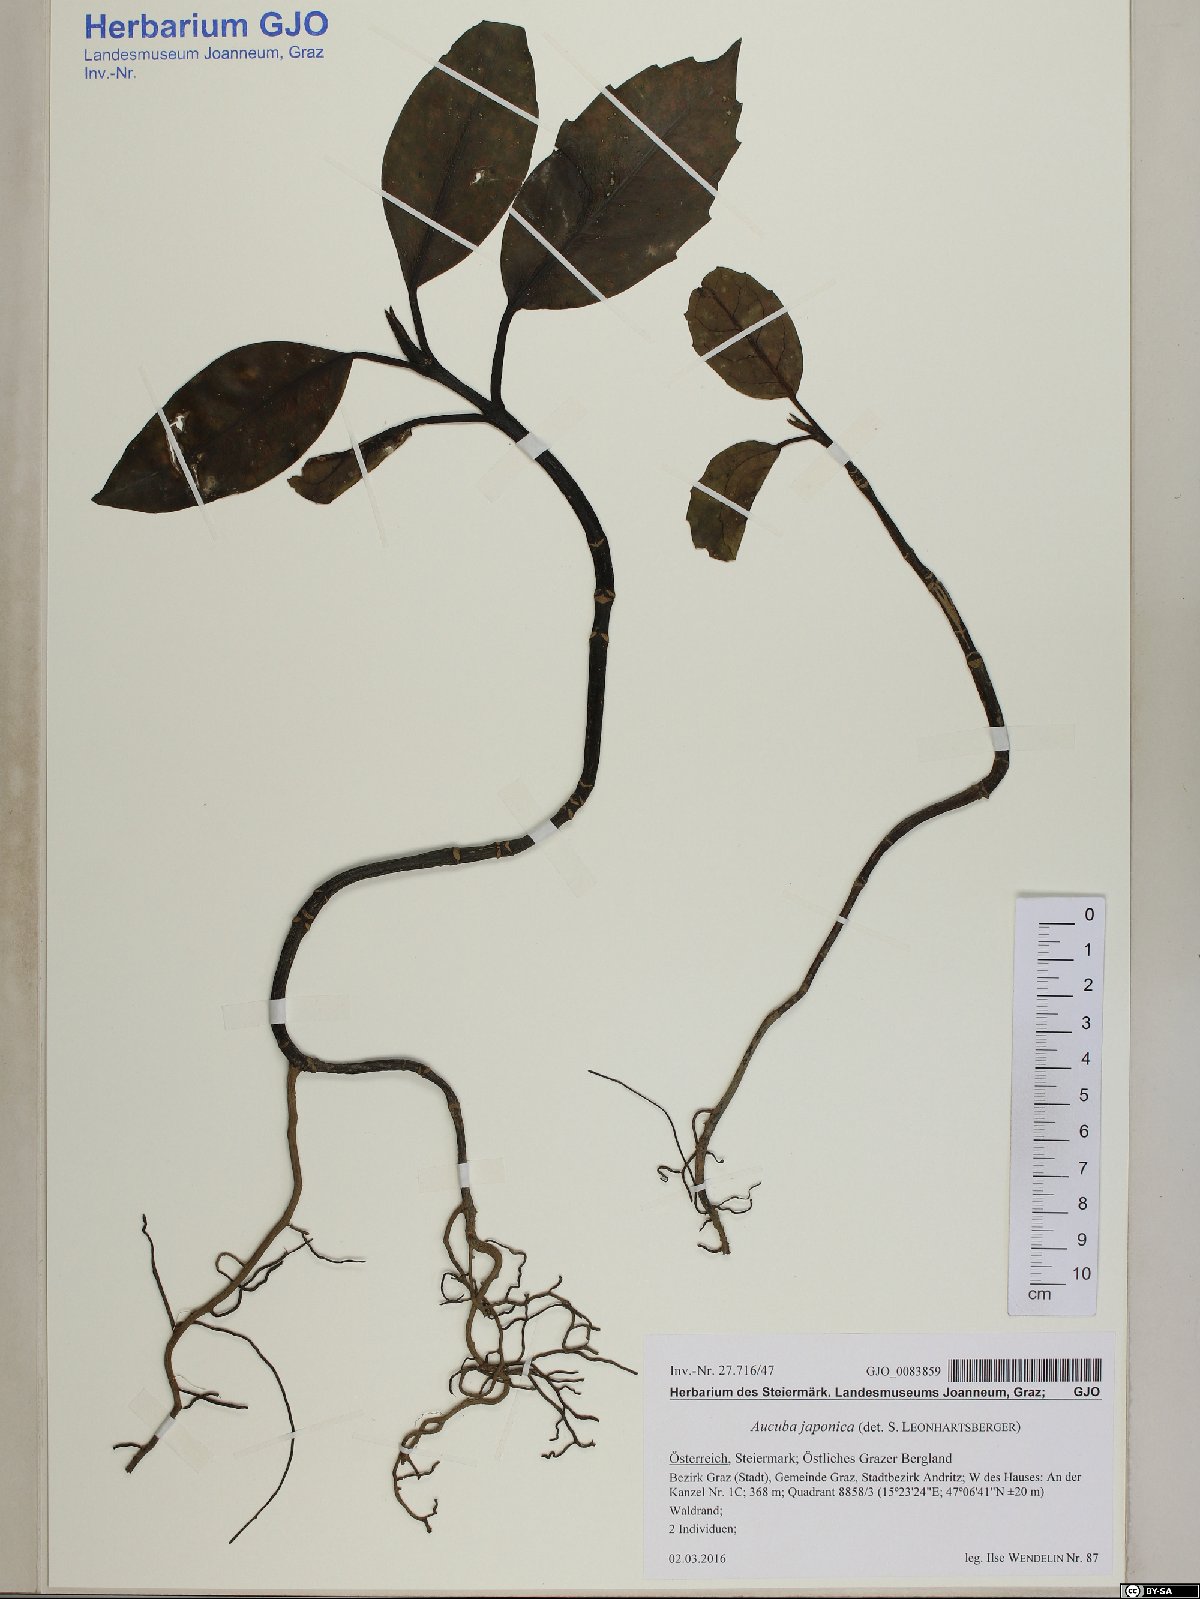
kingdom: Plantae
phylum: Tracheophyta
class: Magnoliopsida
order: Garryales
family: Garryaceae
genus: Aucuba
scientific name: Aucuba japonica
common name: Spotted-laurel
